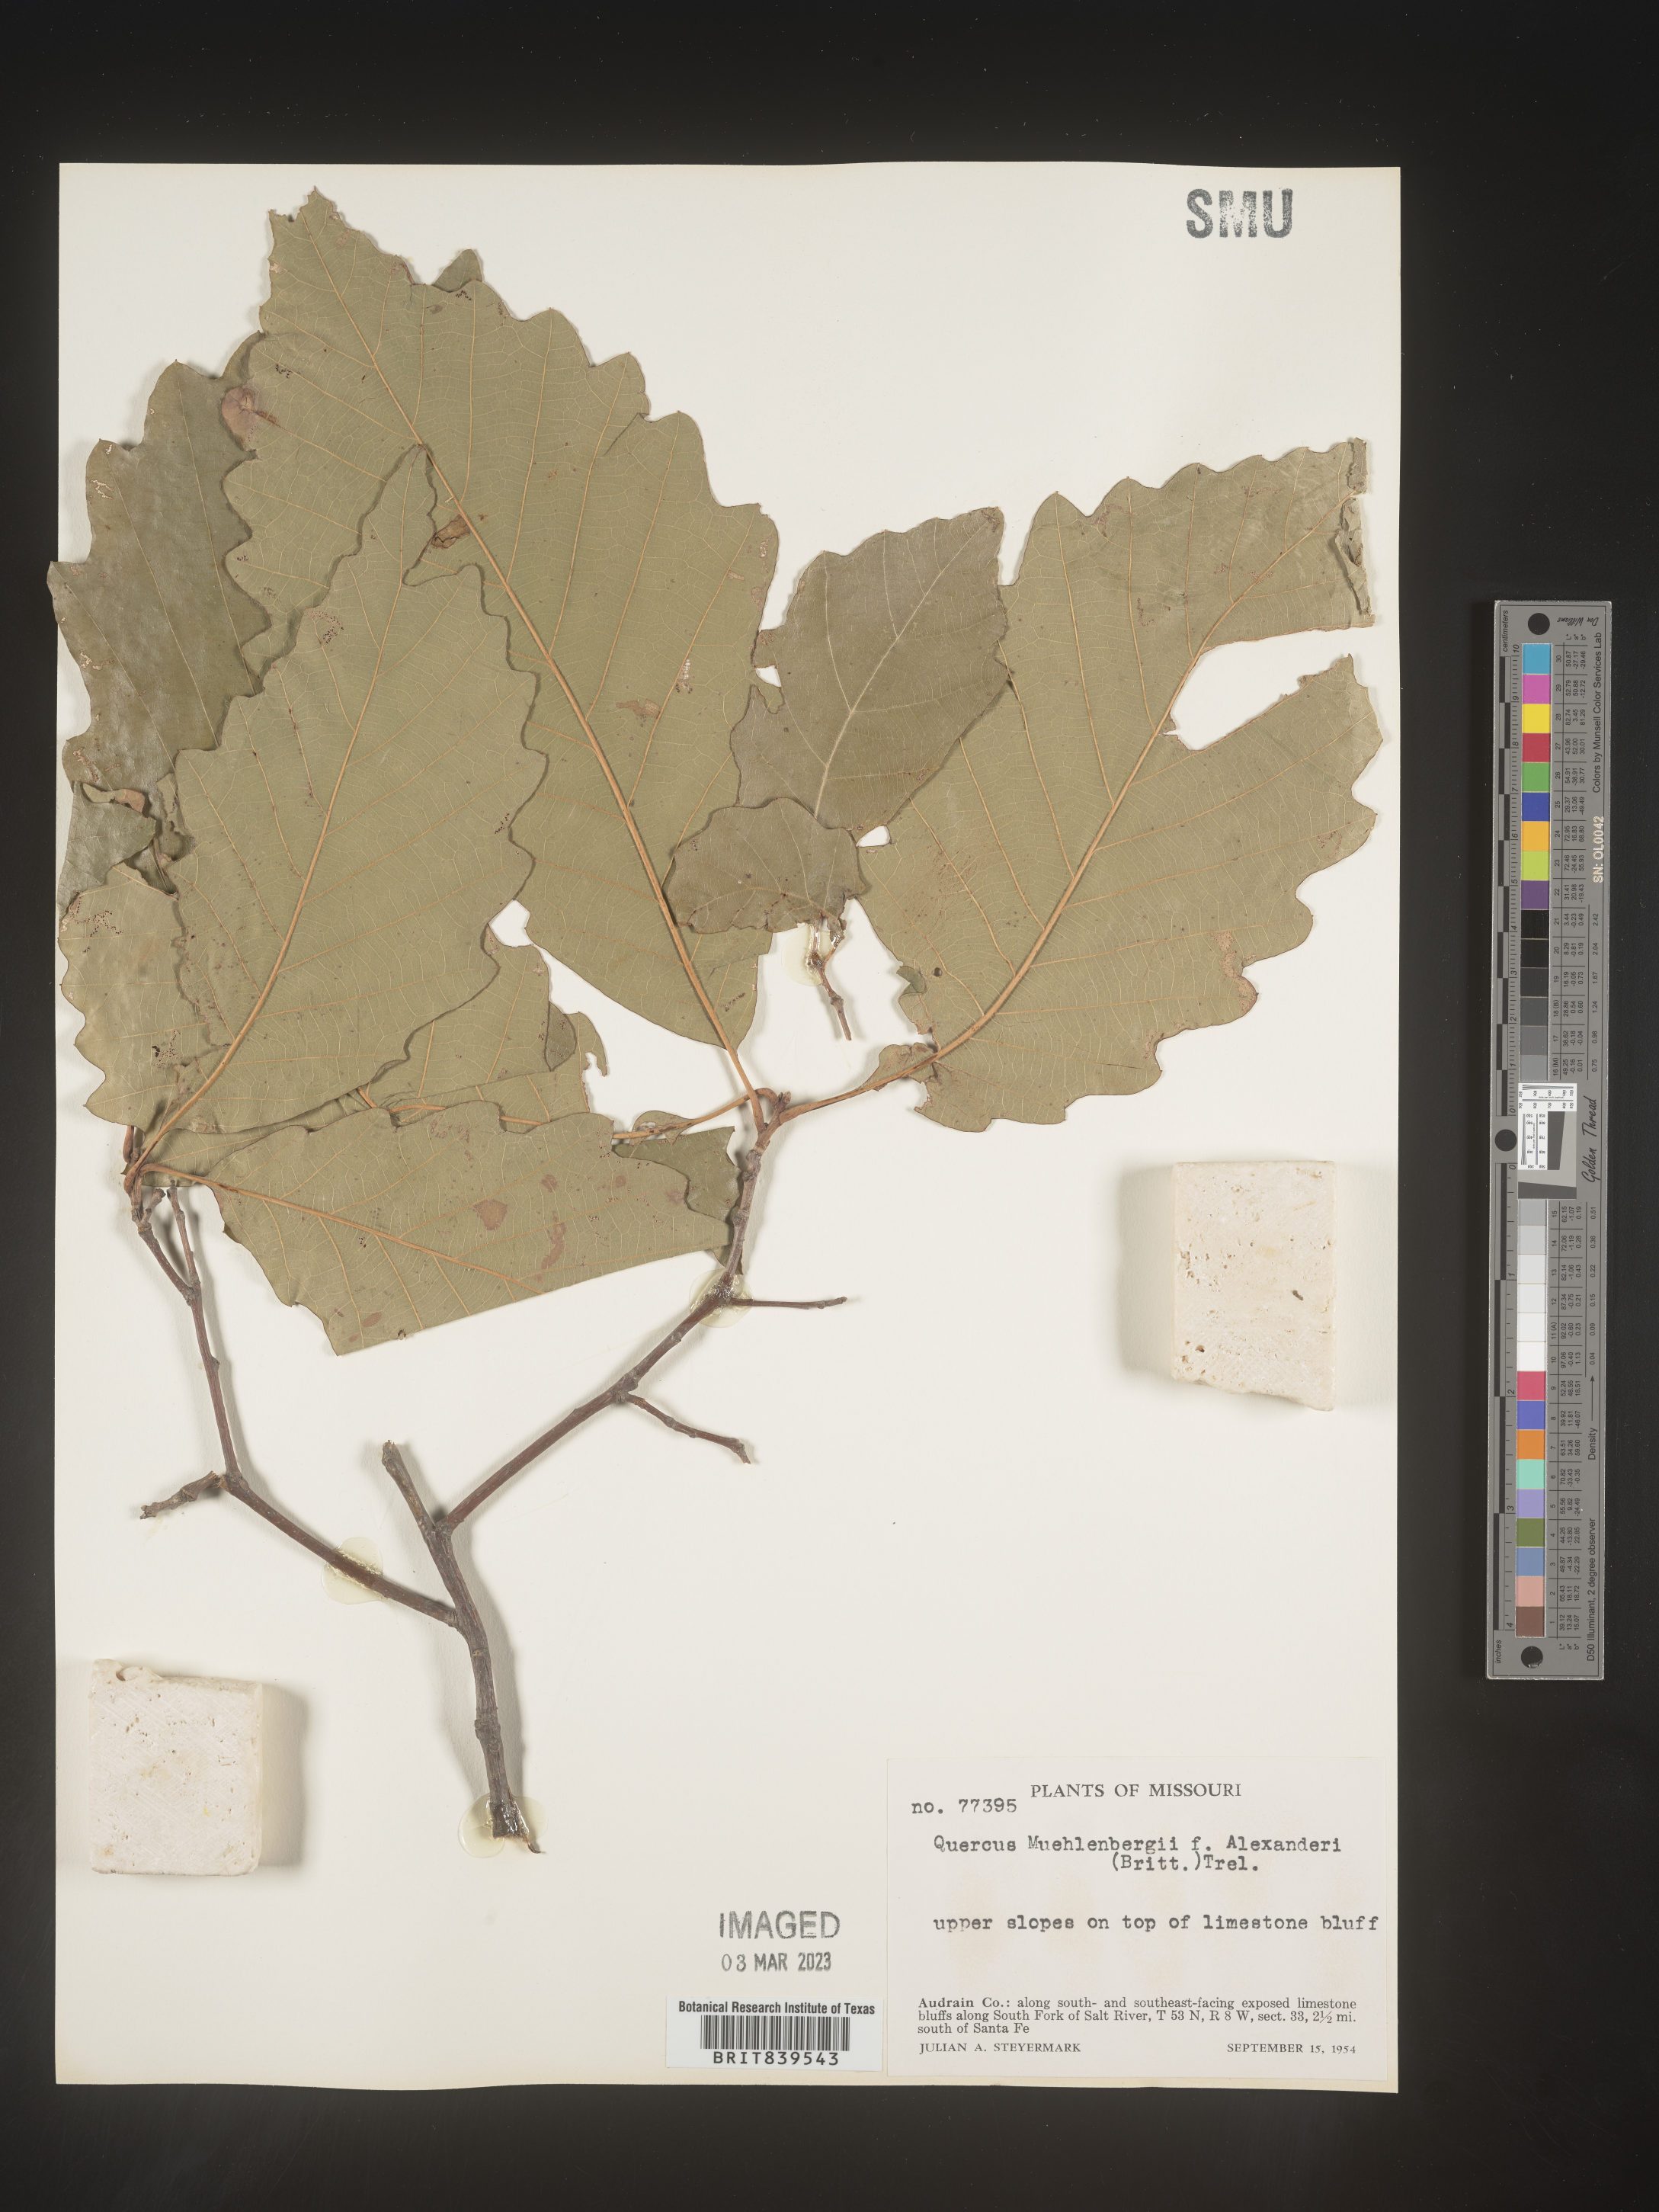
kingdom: Plantae
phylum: Tracheophyta
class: Magnoliopsida
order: Fagales
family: Fagaceae
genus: Quercus
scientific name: Quercus muehlenbergii
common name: Chinkapin oak
